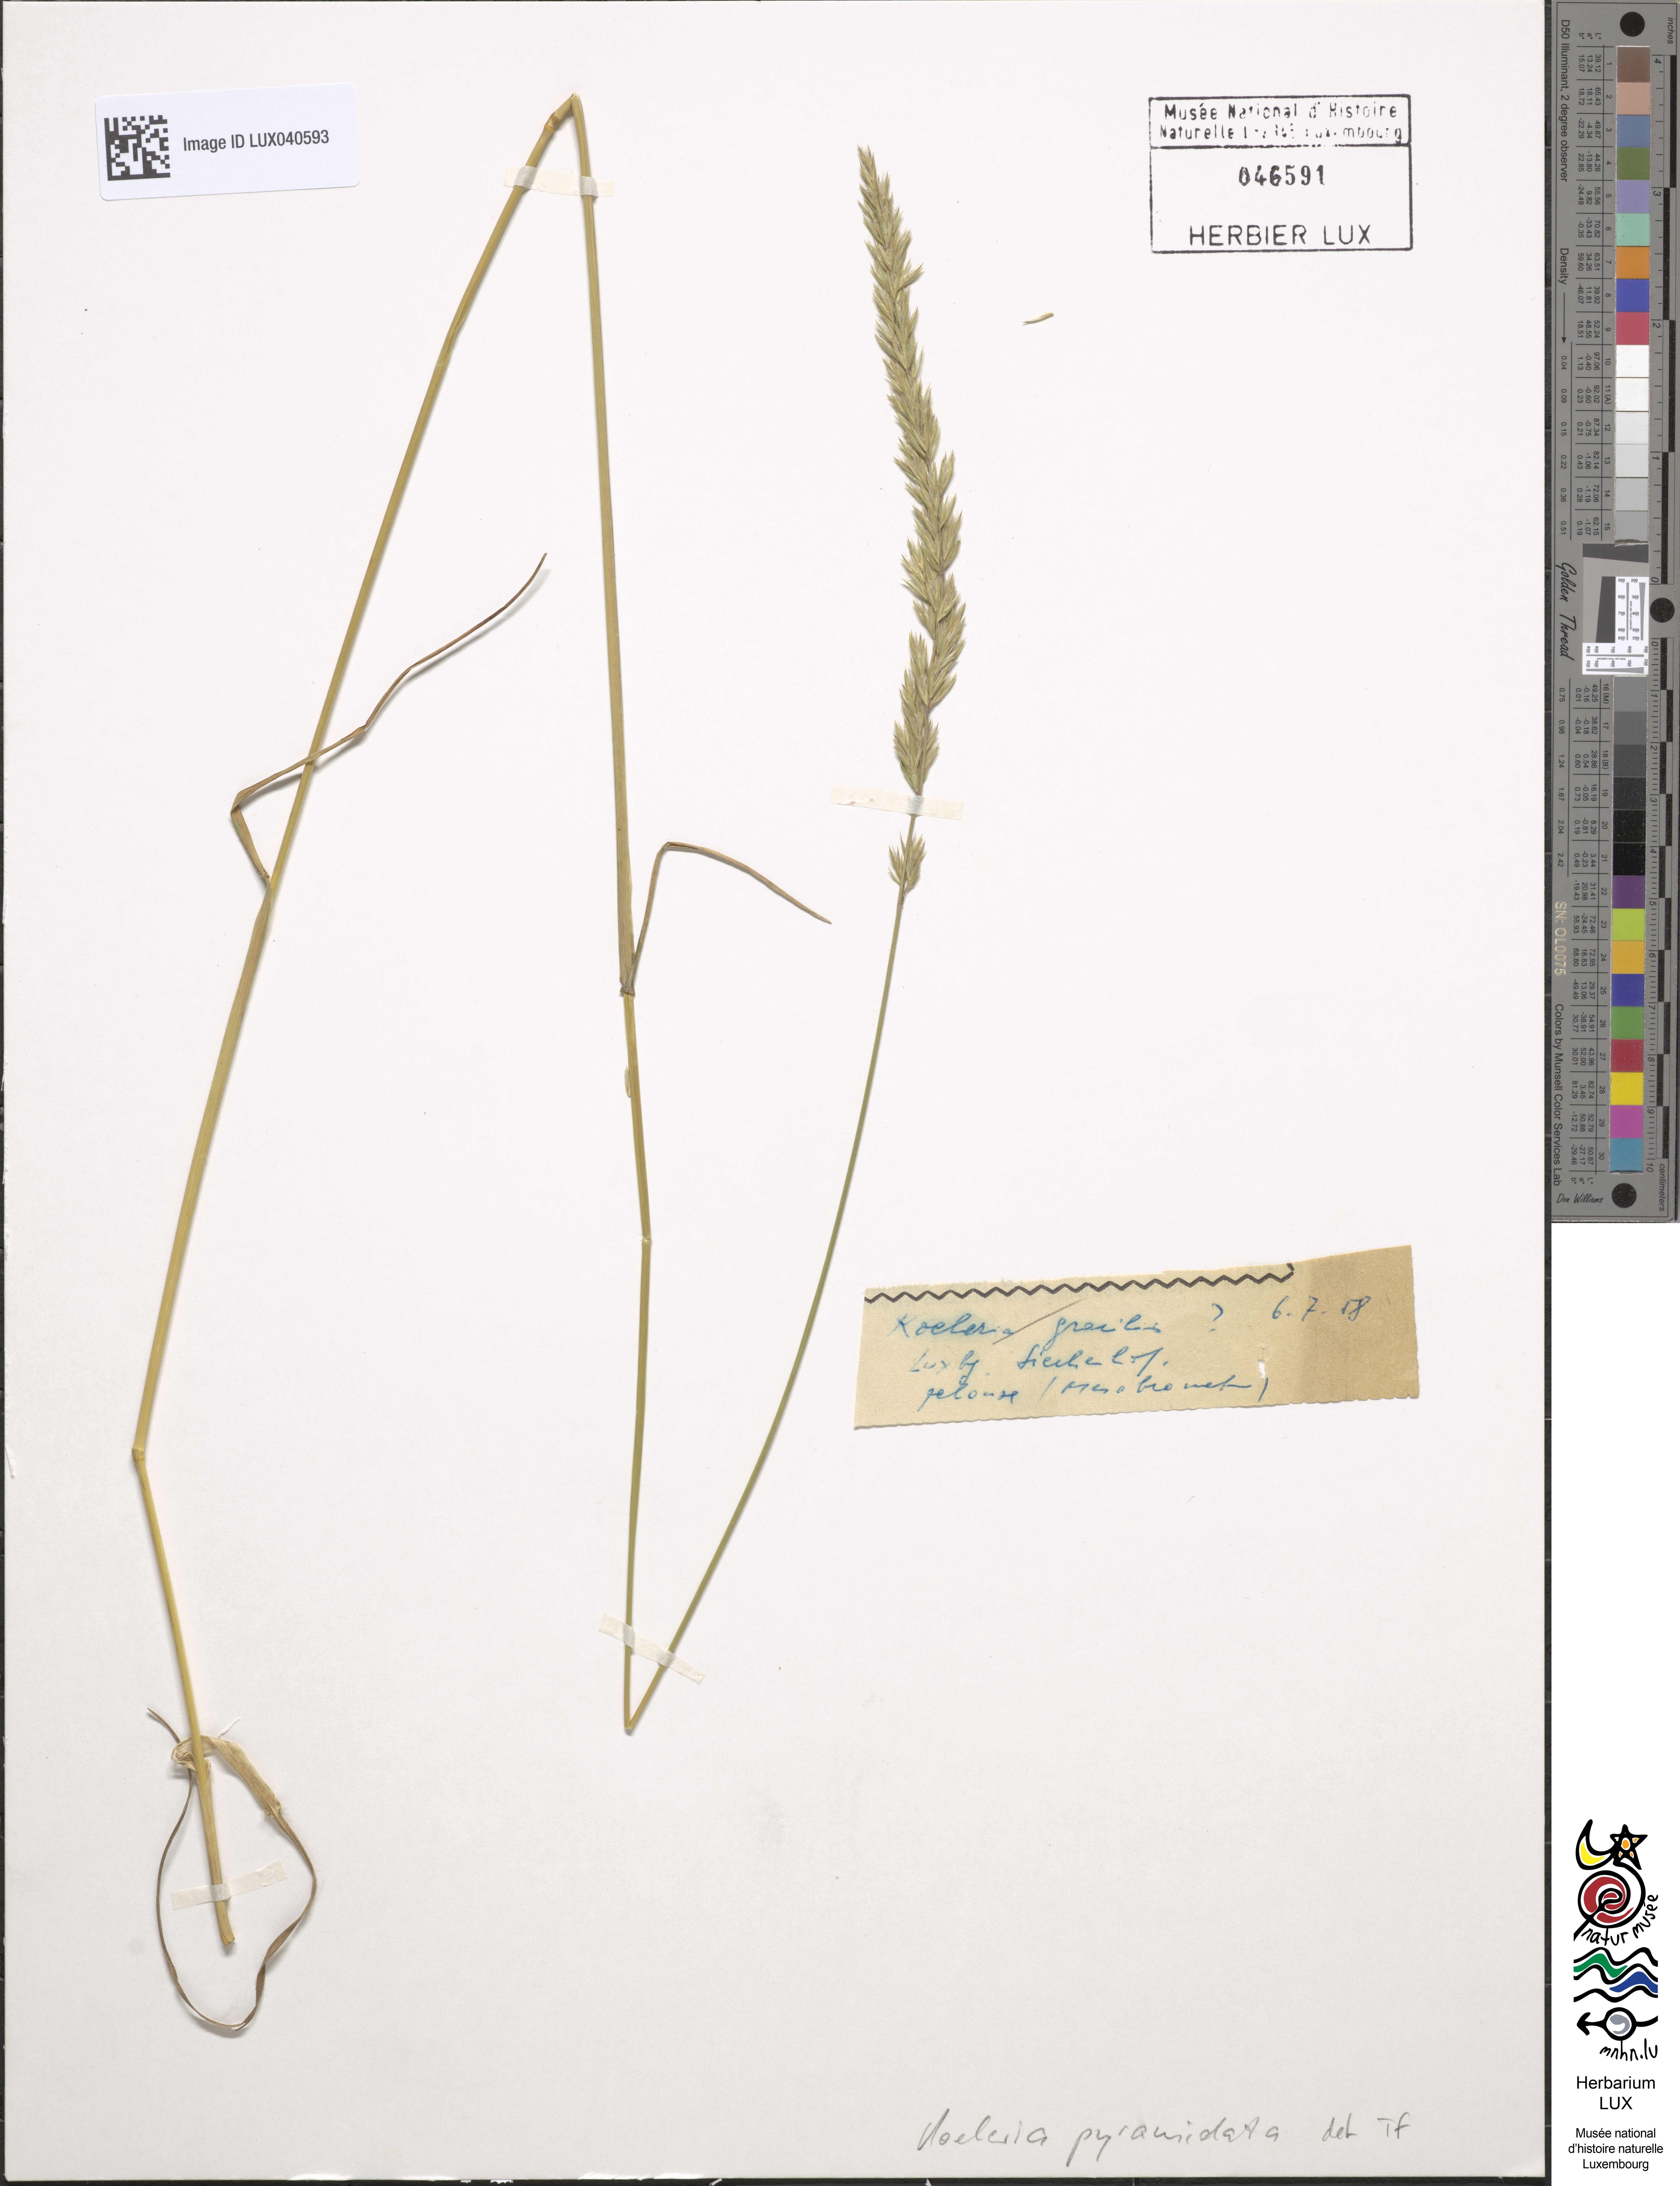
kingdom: Plantae
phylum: Tracheophyta
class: Liliopsida
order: Poales
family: Poaceae
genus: Koeleria
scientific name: Koeleria pyramidata
